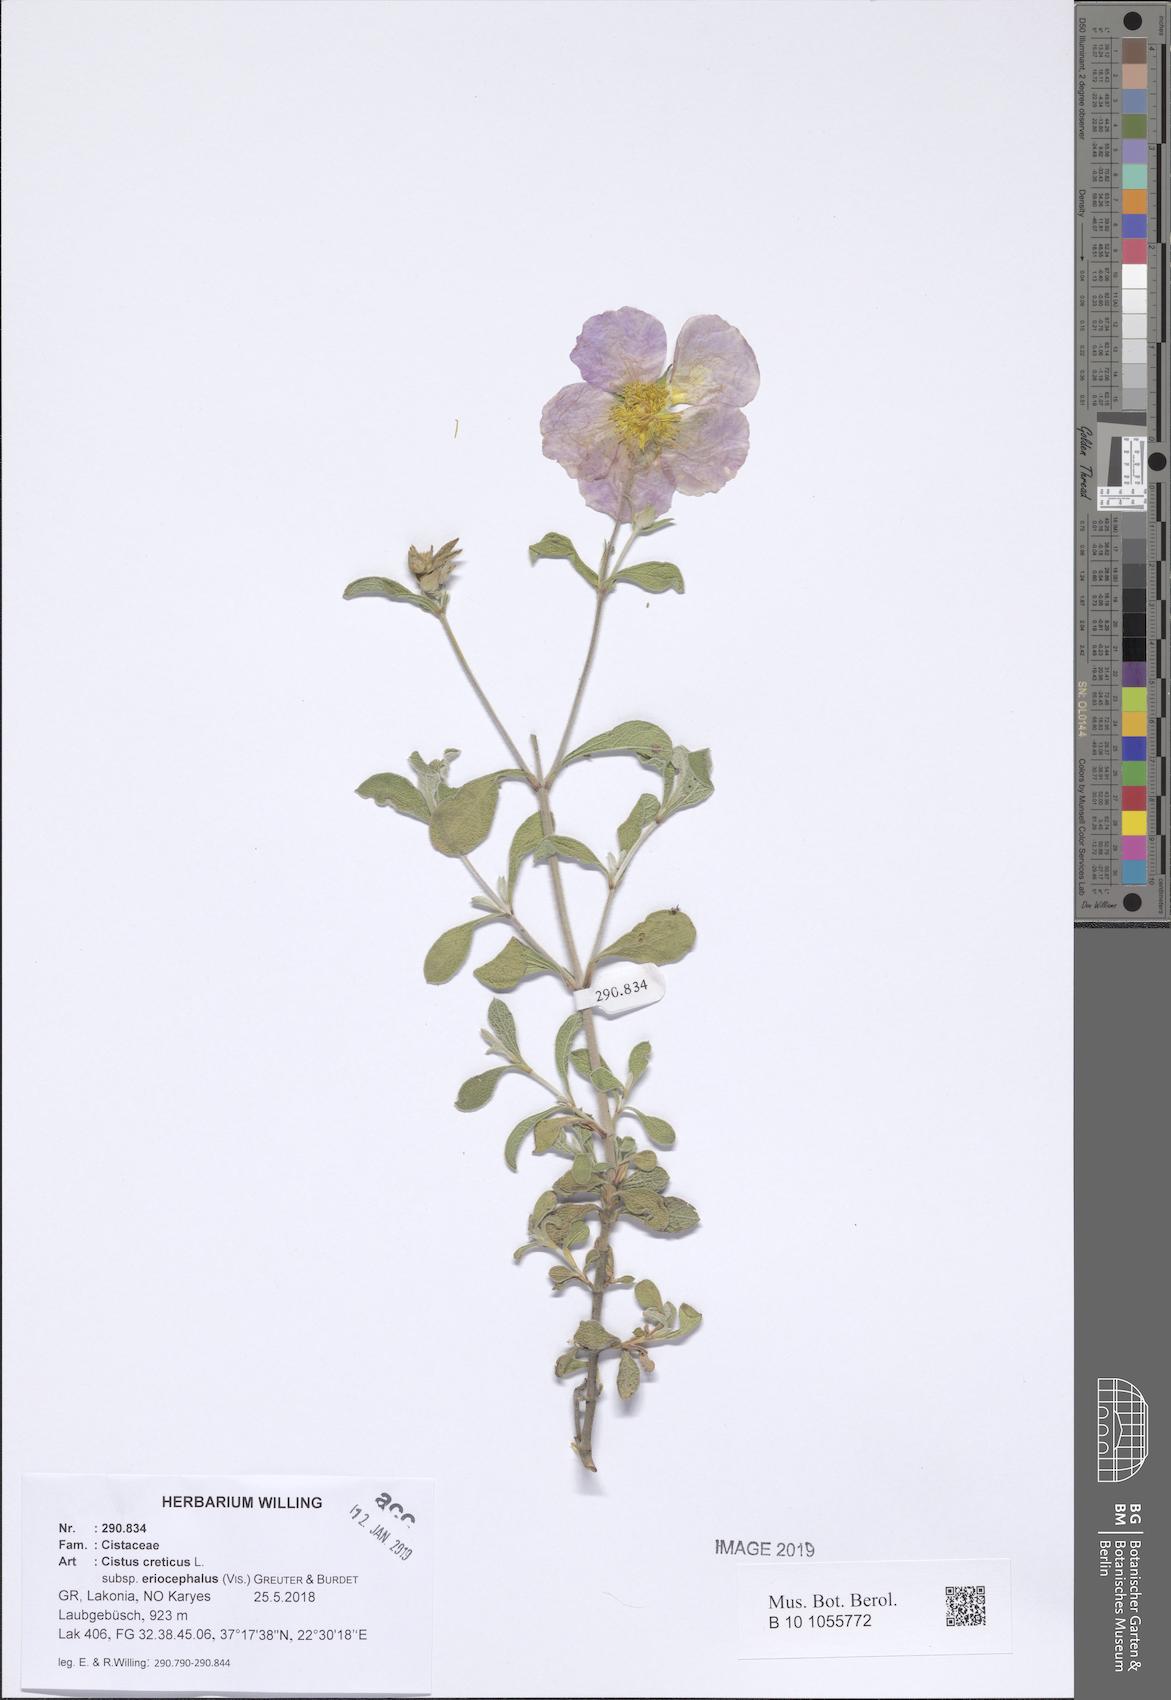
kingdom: Plantae
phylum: Tracheophyta
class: Magnoliopsida
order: Malvales
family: Cistaceae
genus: Cistus
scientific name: Cistus tauricus
